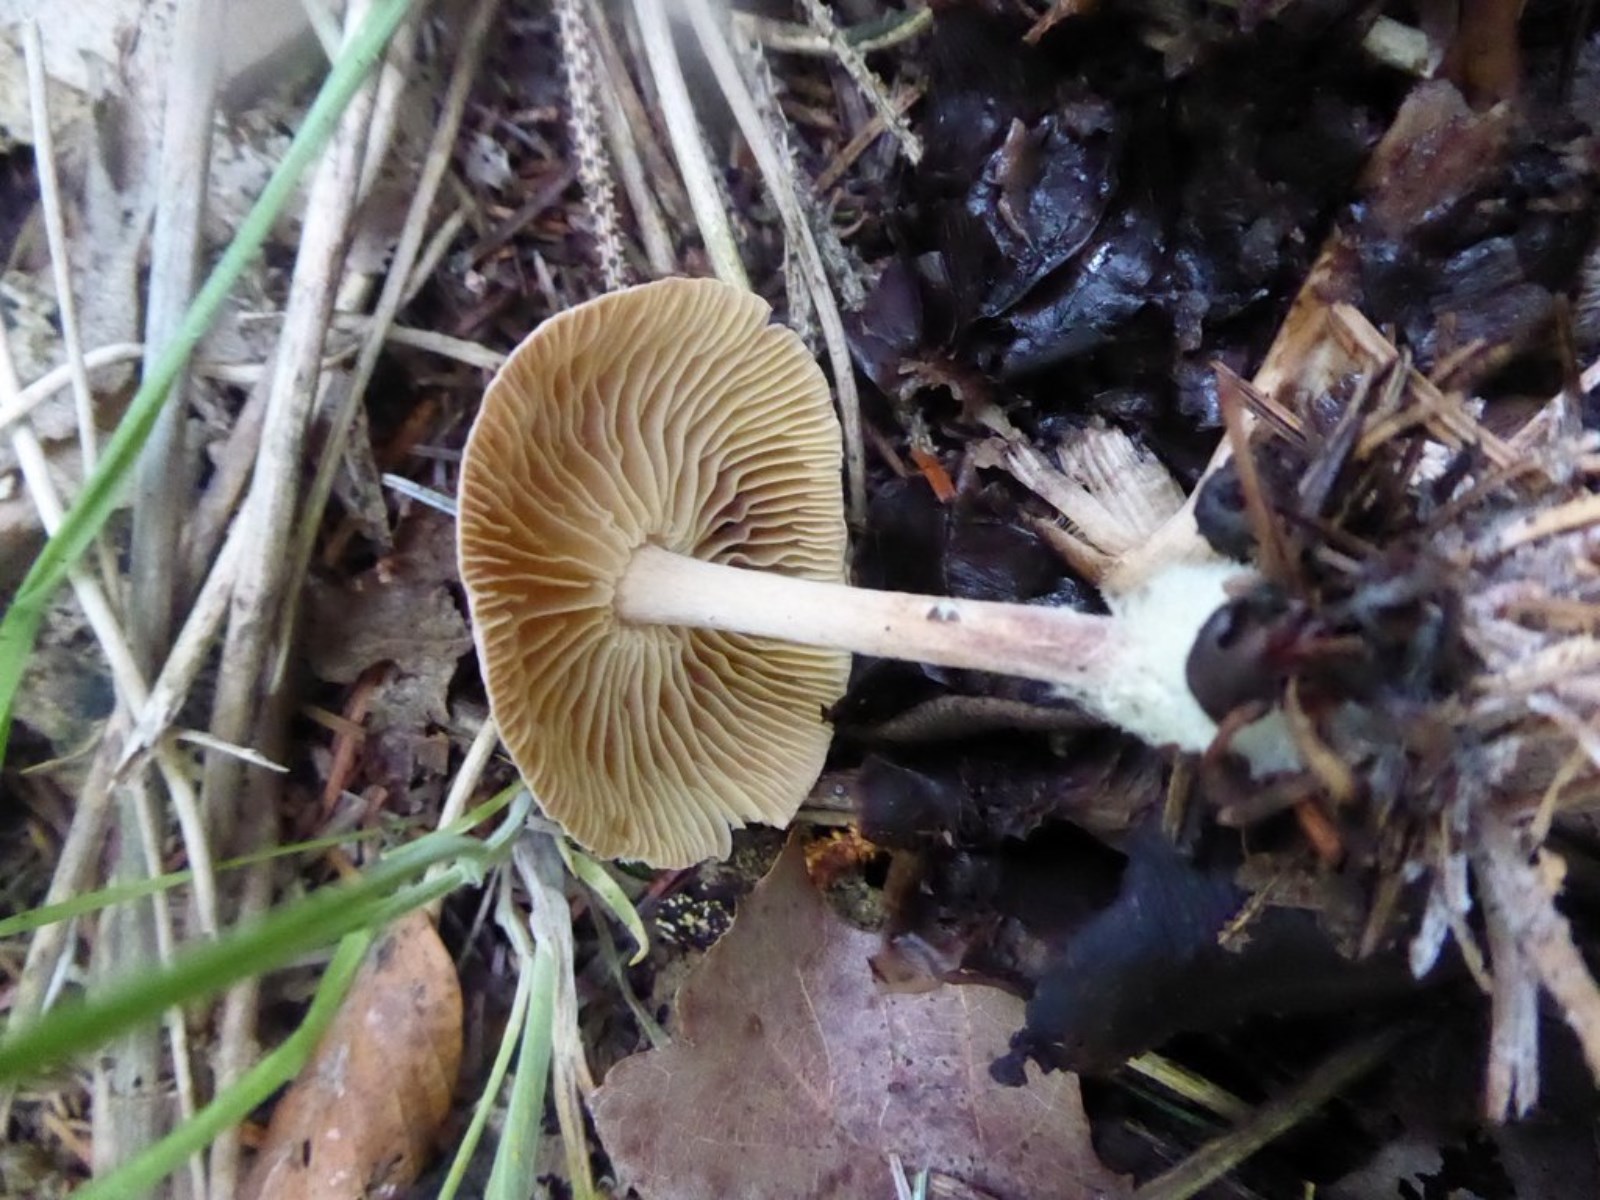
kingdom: Fungi
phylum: Basidiomycota
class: Agaricomycetes
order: Agaricales
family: Omphalotaceae
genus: Collybiopsis
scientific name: Collybiopsis peronata
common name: bestøvlet fladhat
